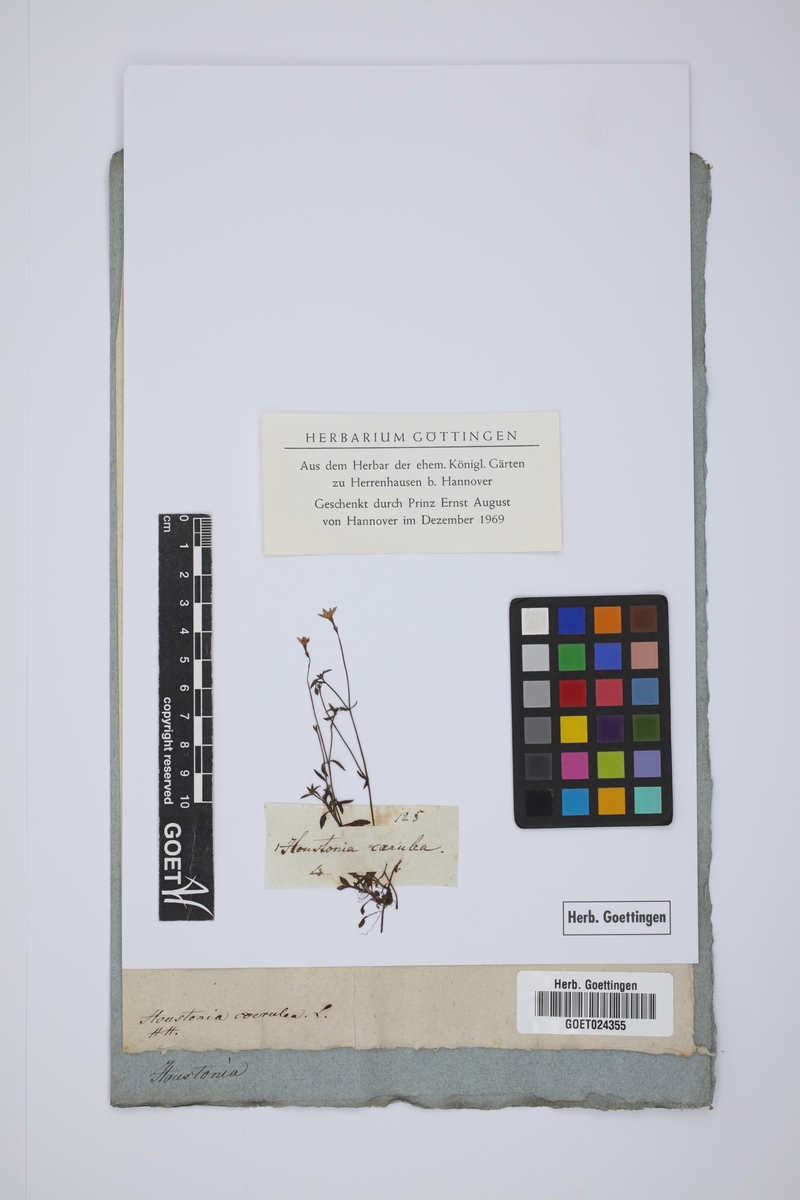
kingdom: Plantae
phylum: Tracheophyta
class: Magnoliopsida
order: Gentianales
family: Rubiaceae
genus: Houstonia
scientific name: Houstonia caerulea
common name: Bluets
